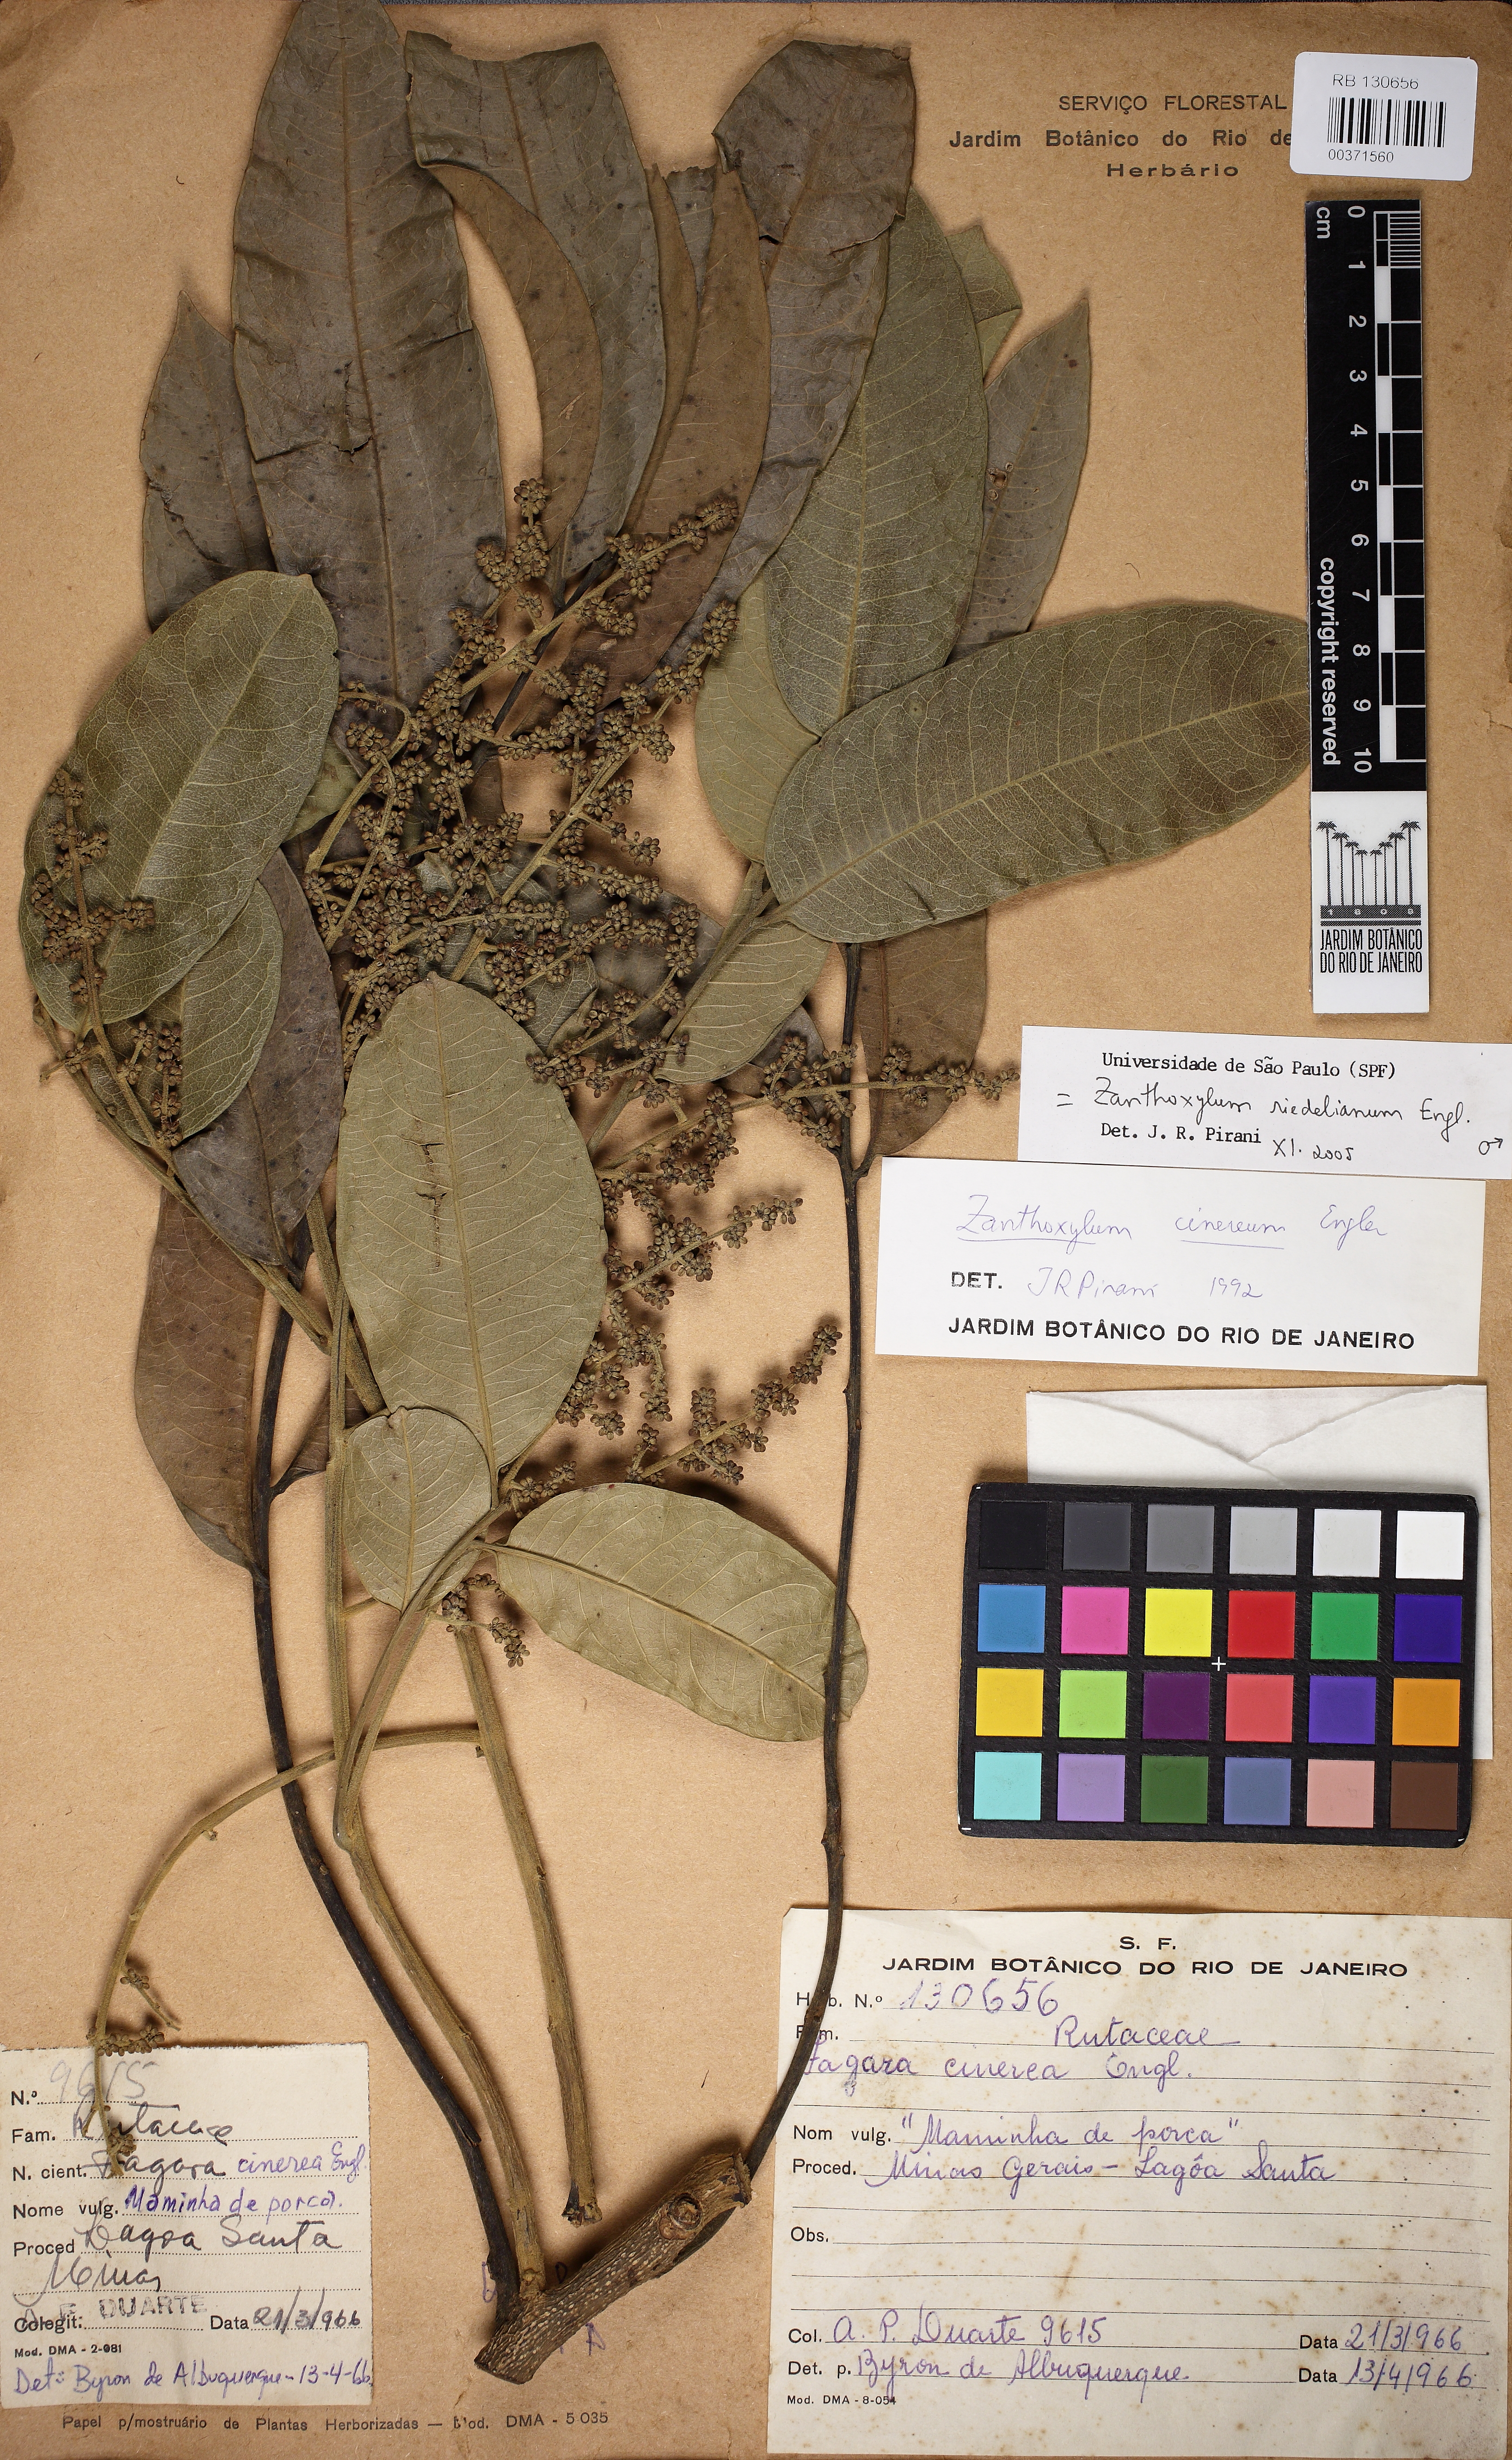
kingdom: Plantae
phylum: Tracheophyta
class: Magnoliopsida
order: Sapindales
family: Rutaceae
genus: Zanthoxylum
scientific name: Zanthoxylum riedelianum
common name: White copal
